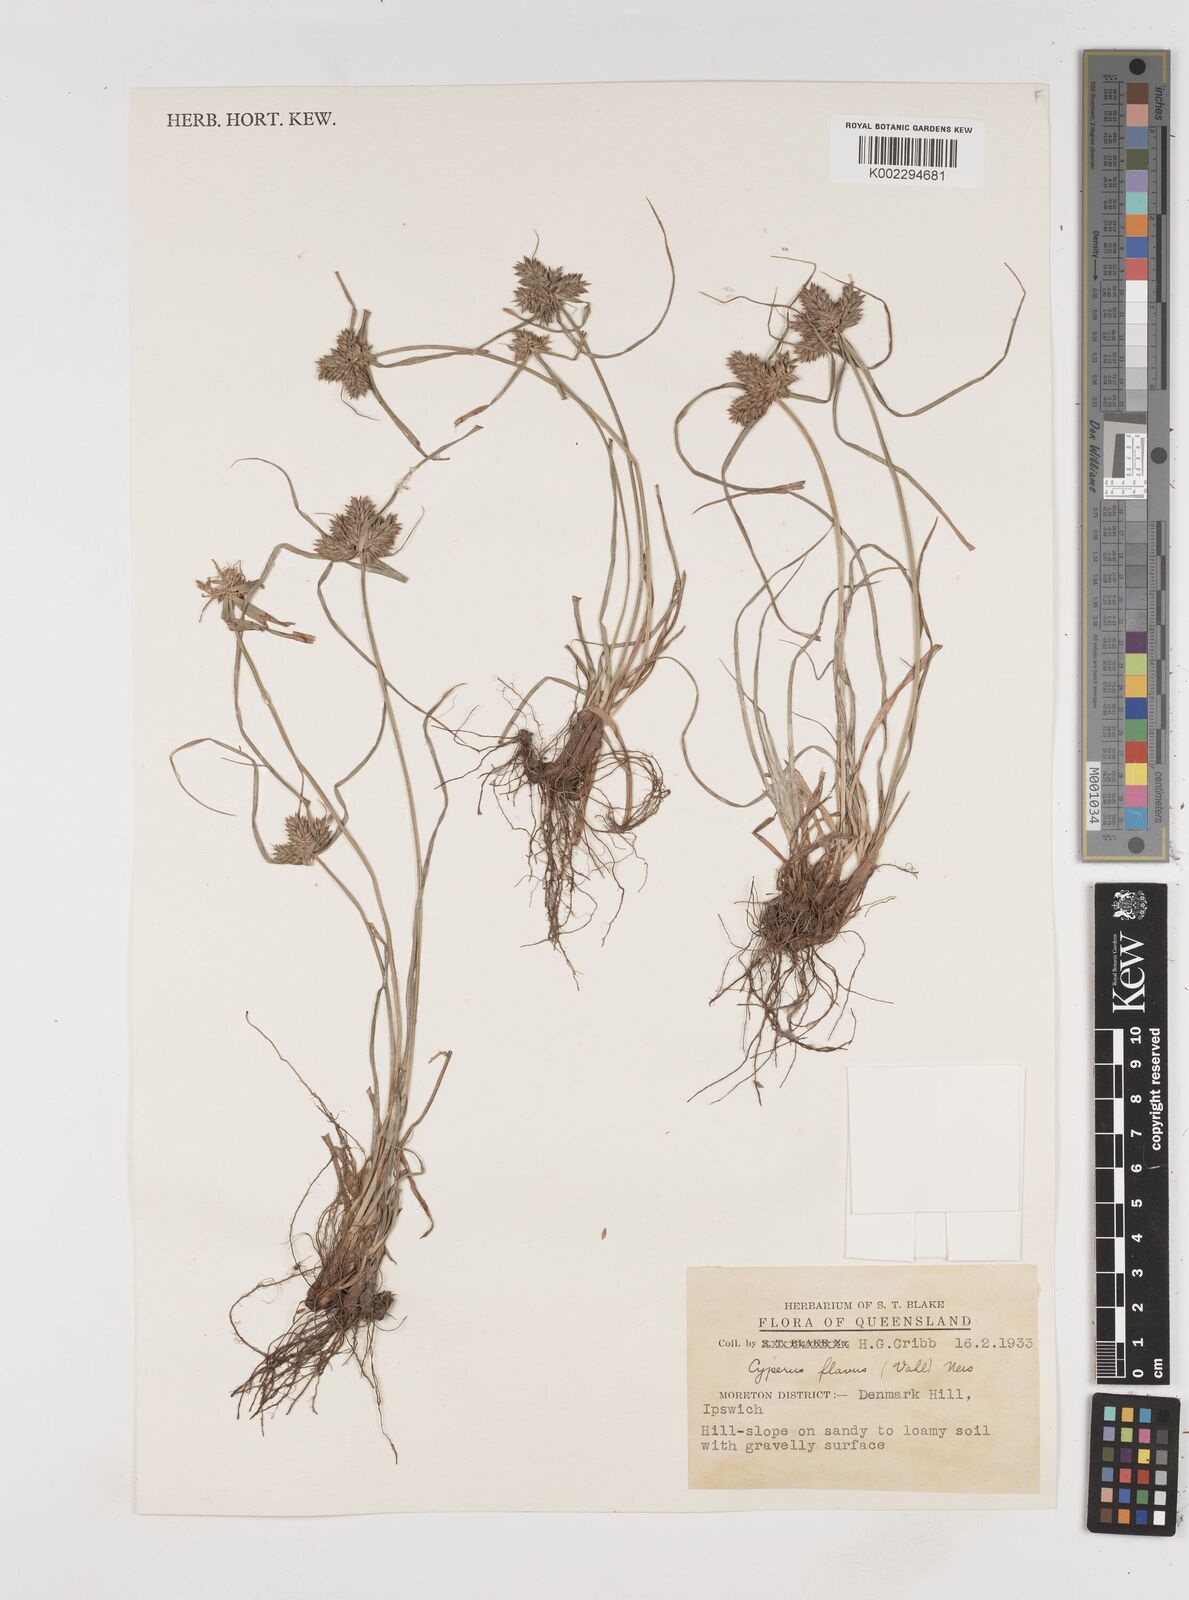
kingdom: Plantae
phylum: Tracheophyta
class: Liliopsida
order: Poales
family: Cyperaceae
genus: Cyperus
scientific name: Cyperus aggregatus
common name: Inflatedscale flatsedge
